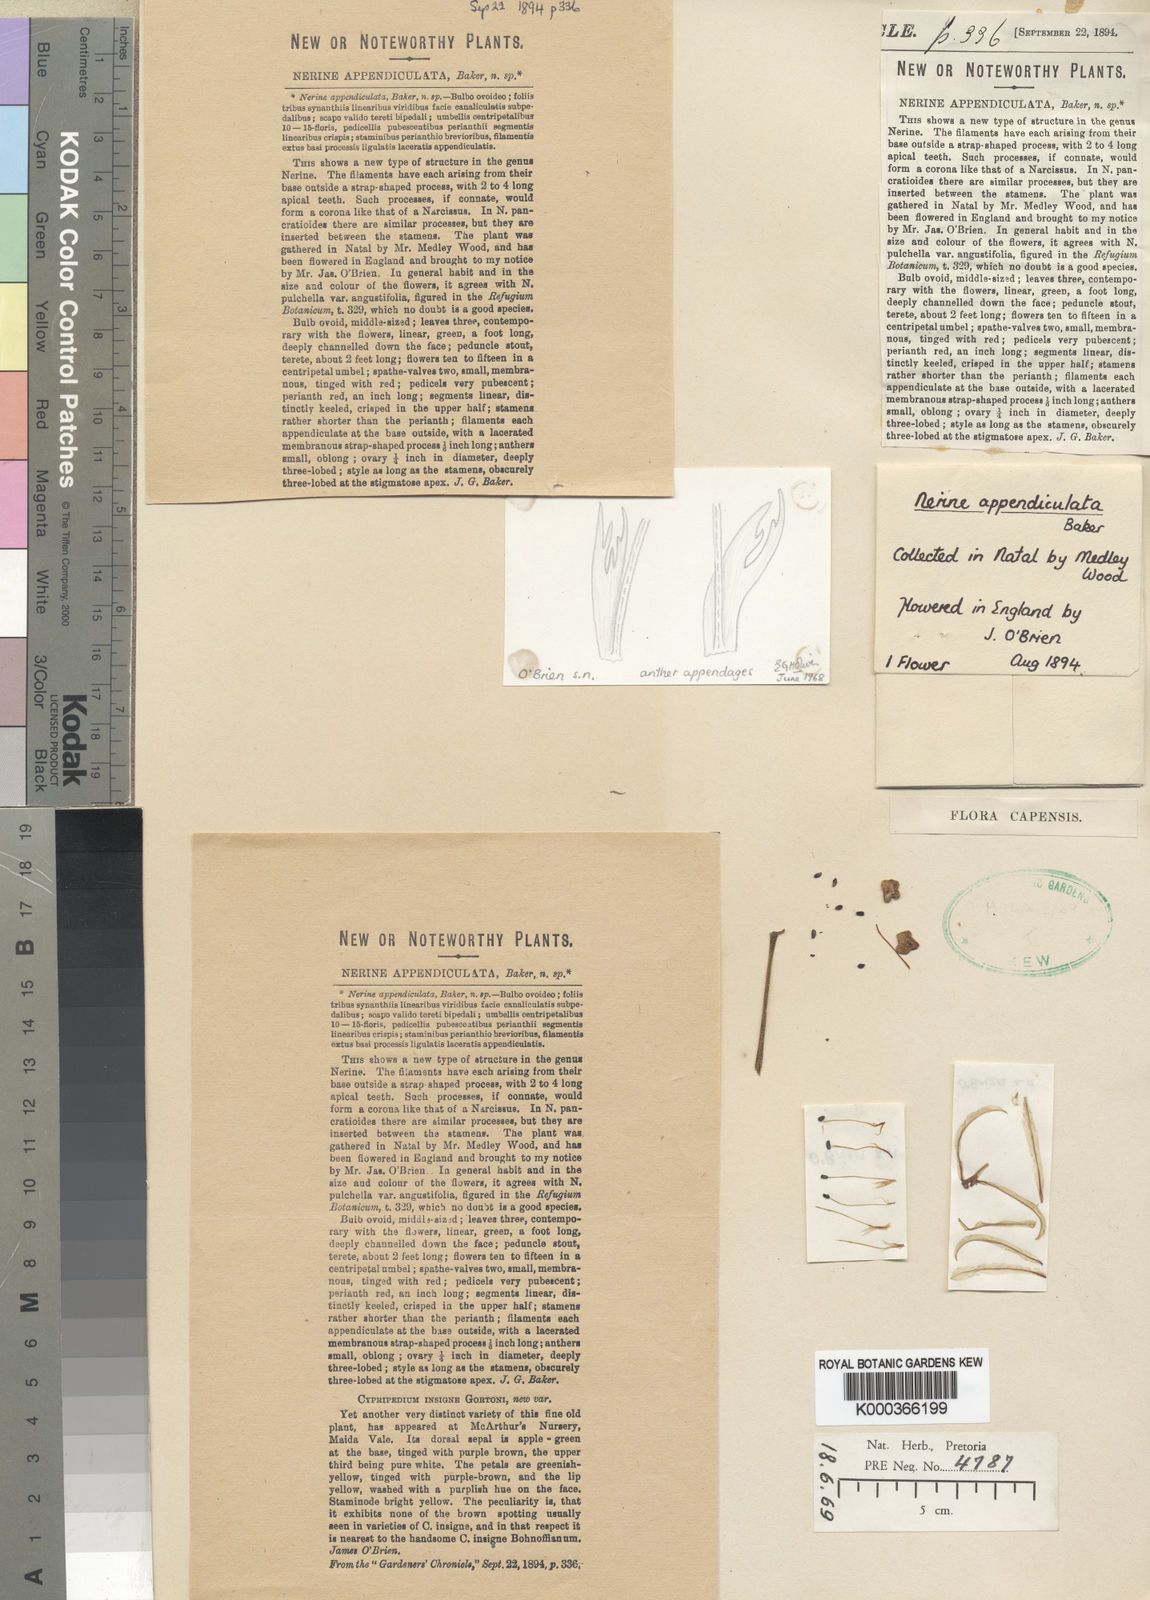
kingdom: Plantae
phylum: Tracheophyta
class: Liliopsida
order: Asparagales
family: Amaryllidaceae
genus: Nerine
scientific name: Nerine appendiculata
